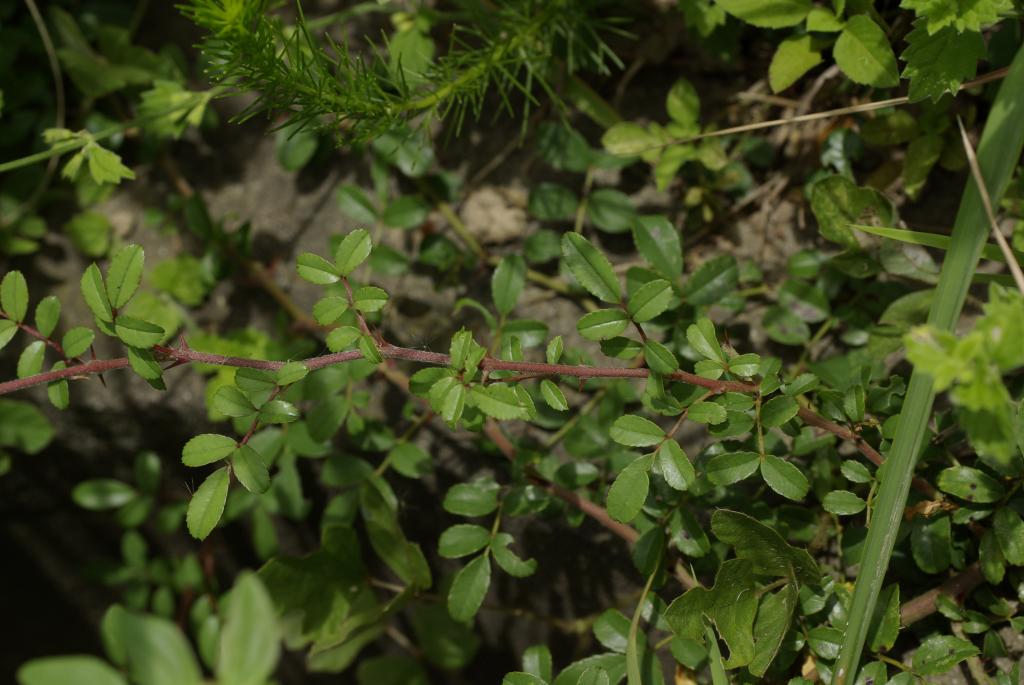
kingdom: Plantae
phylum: Tracheophyta
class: Magnoliopsida
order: Rosales
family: Rosaceae
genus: Rosa
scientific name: Rosa bracteata
